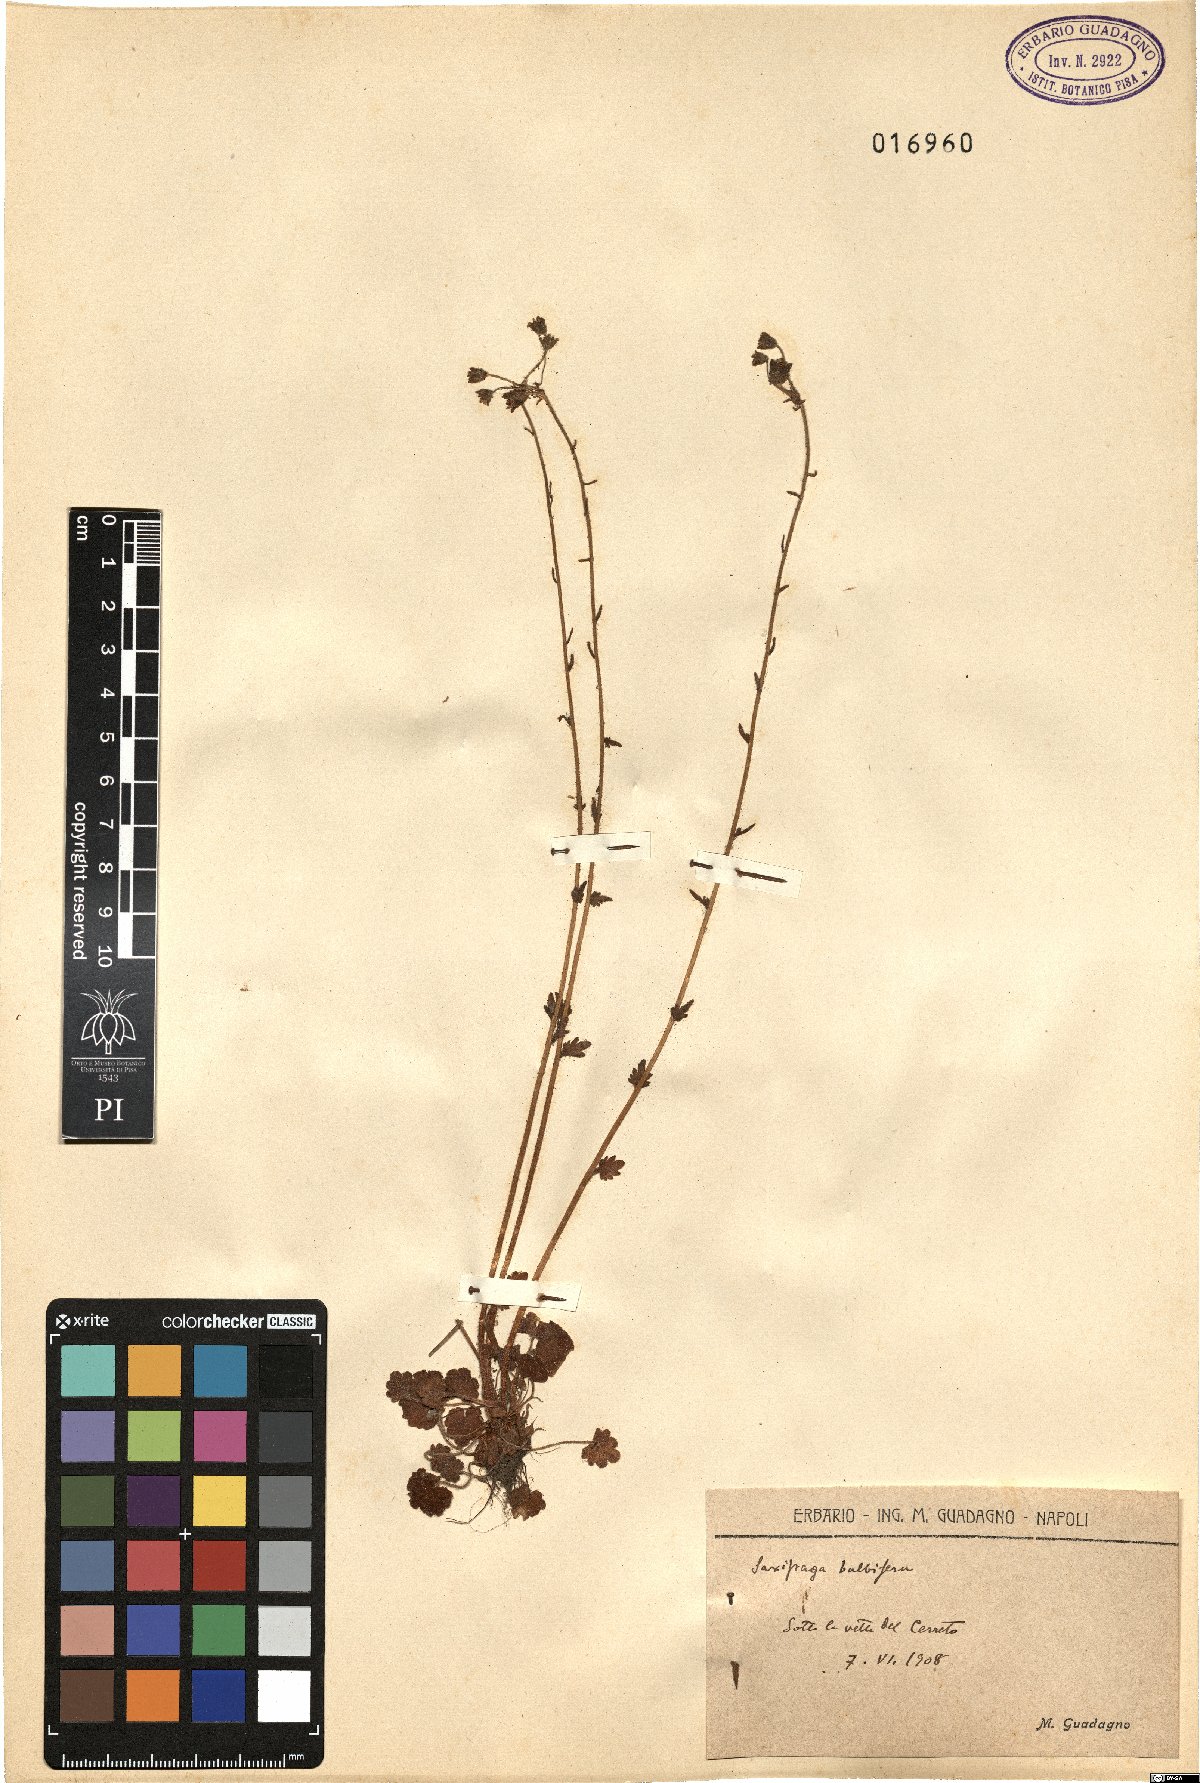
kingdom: Plantae
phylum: Tracheophyta
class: Magnoliopsida
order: Saxifragales
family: Saxifragaceae
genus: Saxifraga
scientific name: Saxifraga bulbifera
